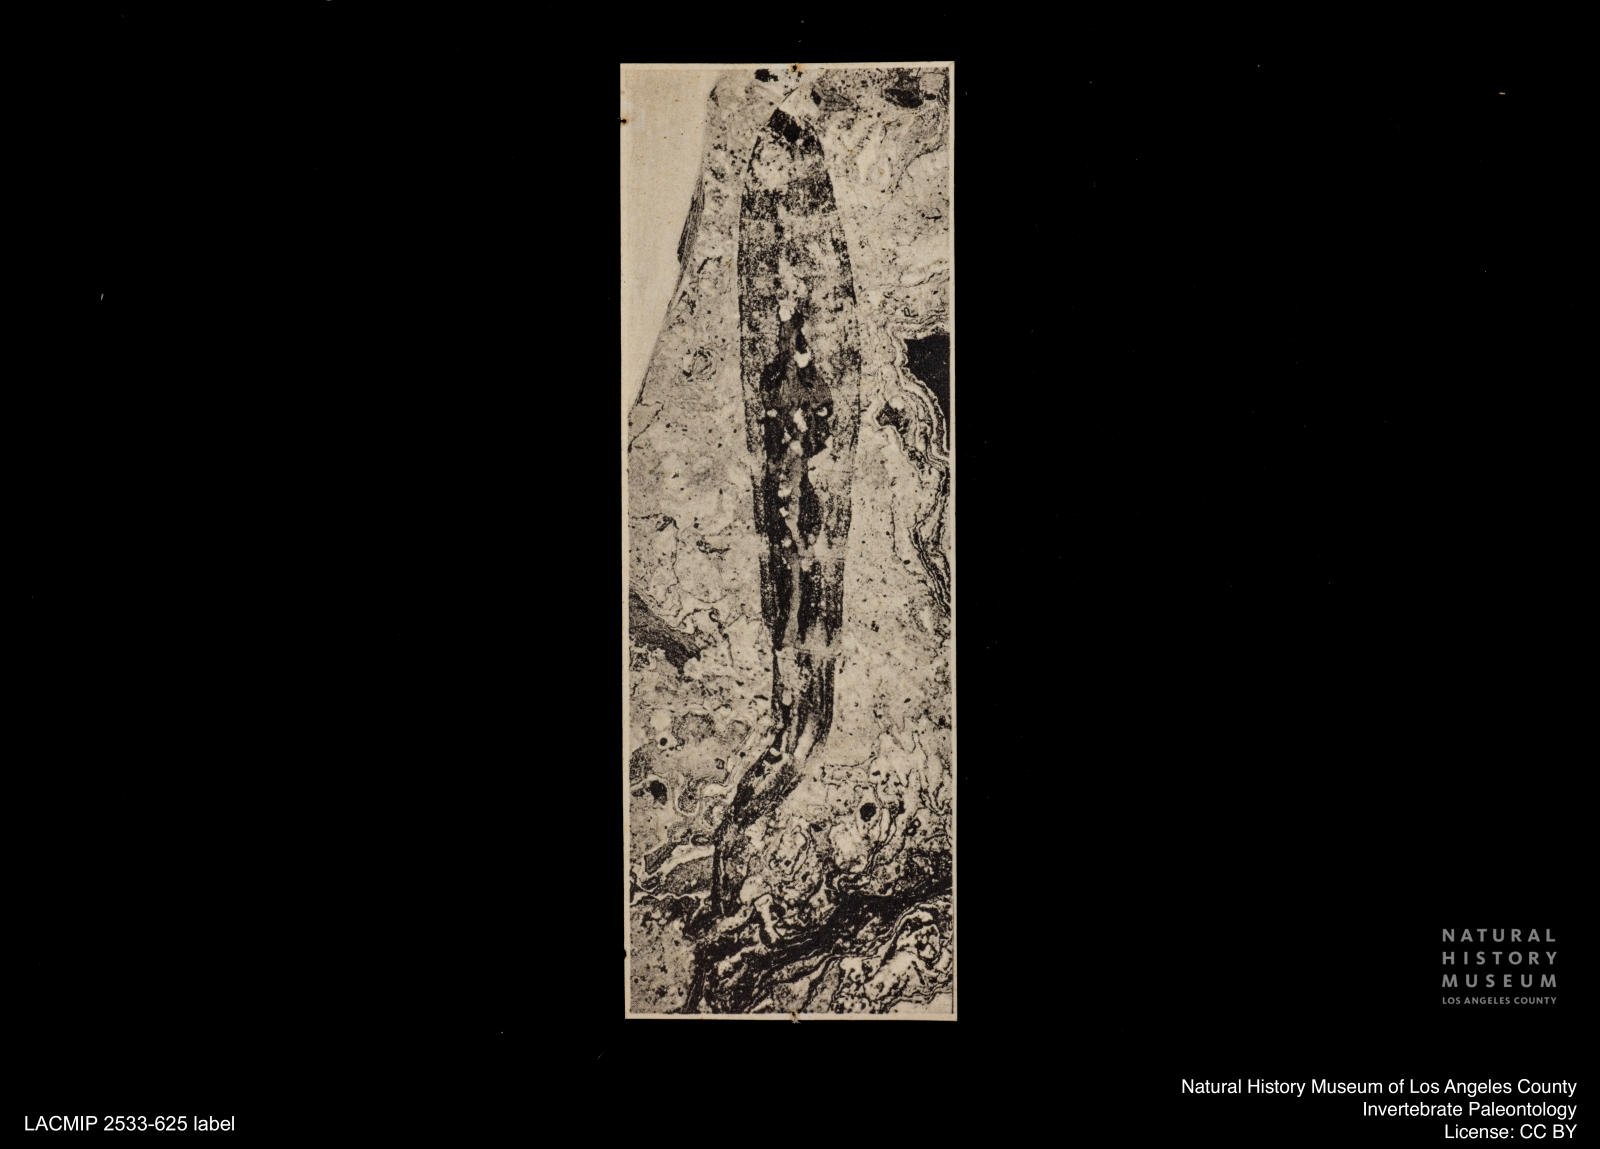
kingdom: Animalia
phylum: Arthropoda
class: Insecta
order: Diptera
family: Stratiomyidae
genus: Stratiomys
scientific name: Stratiomys
